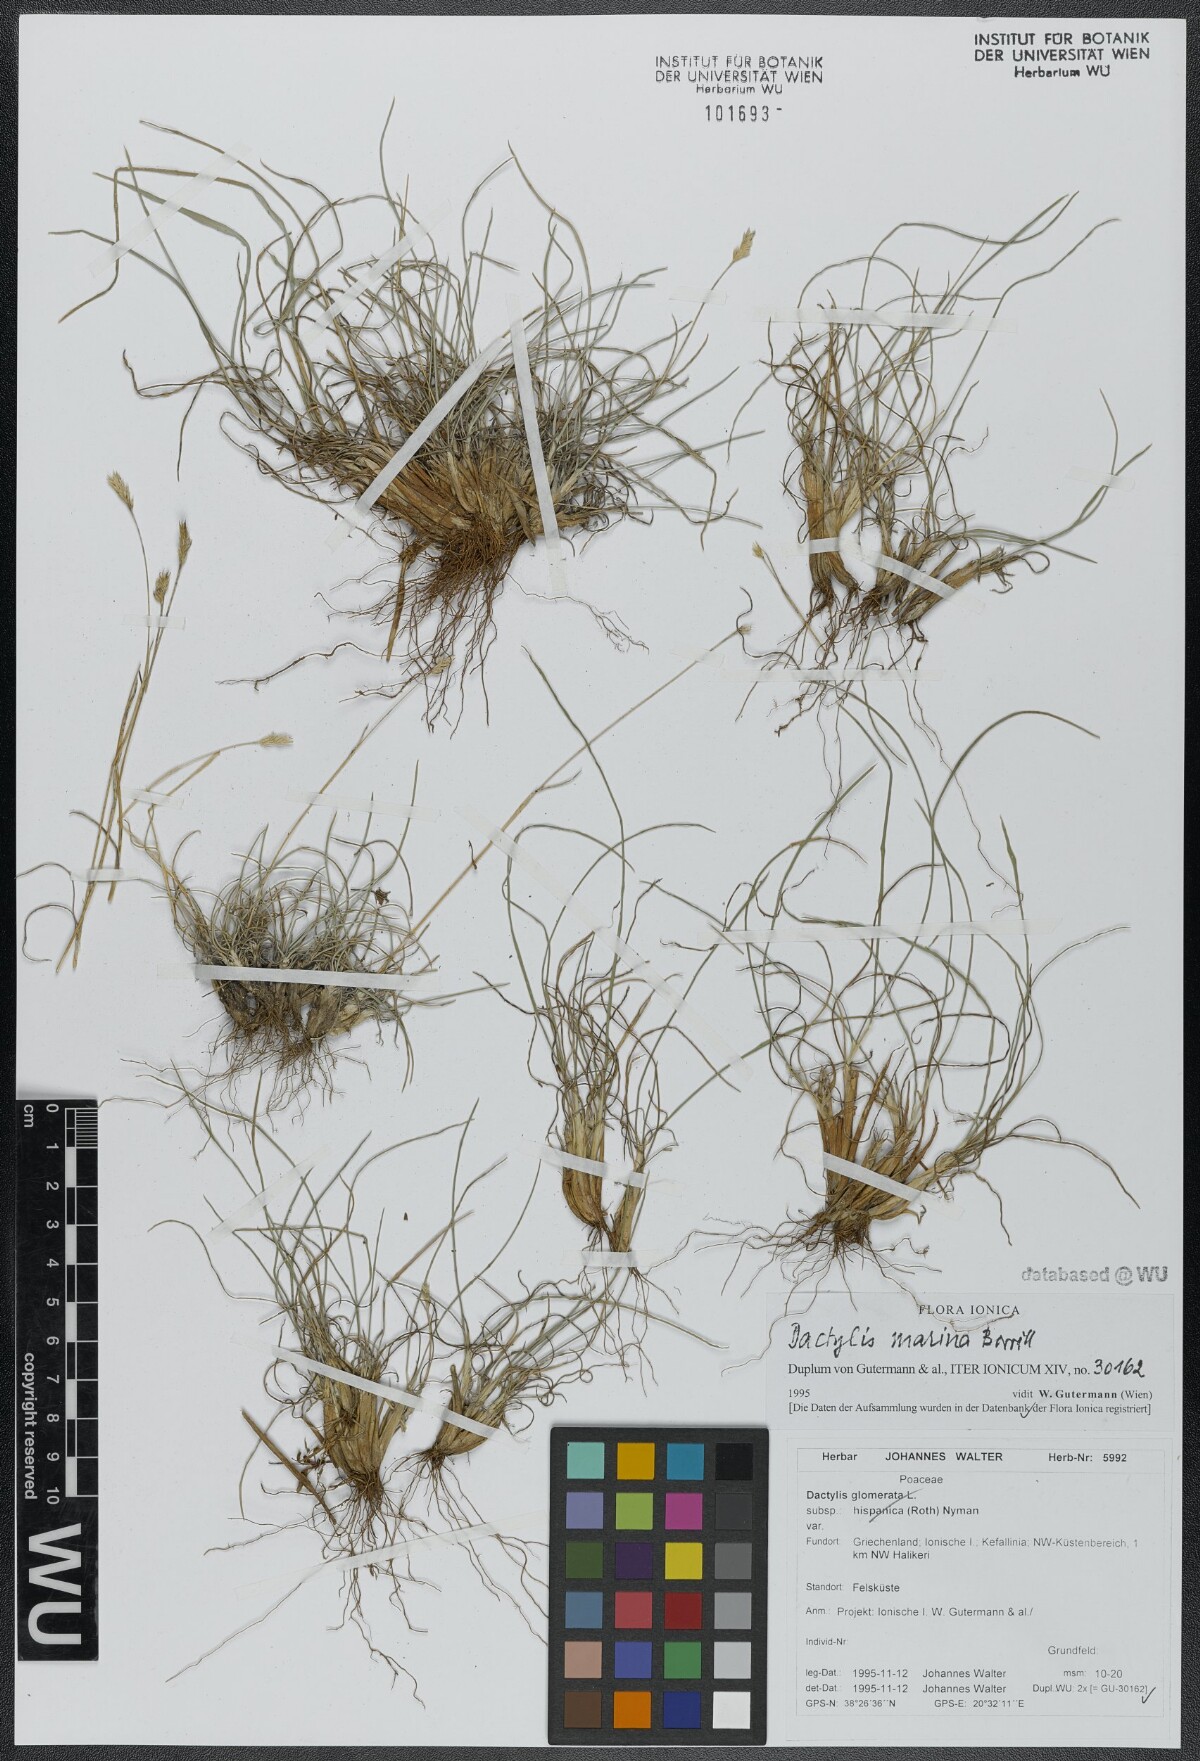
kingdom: Plantae
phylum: Tracheophyta
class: Liliopsida
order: Poales
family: Poaceae
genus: Dactylis
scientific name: Dactylis glomerata
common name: Orchardgrass
